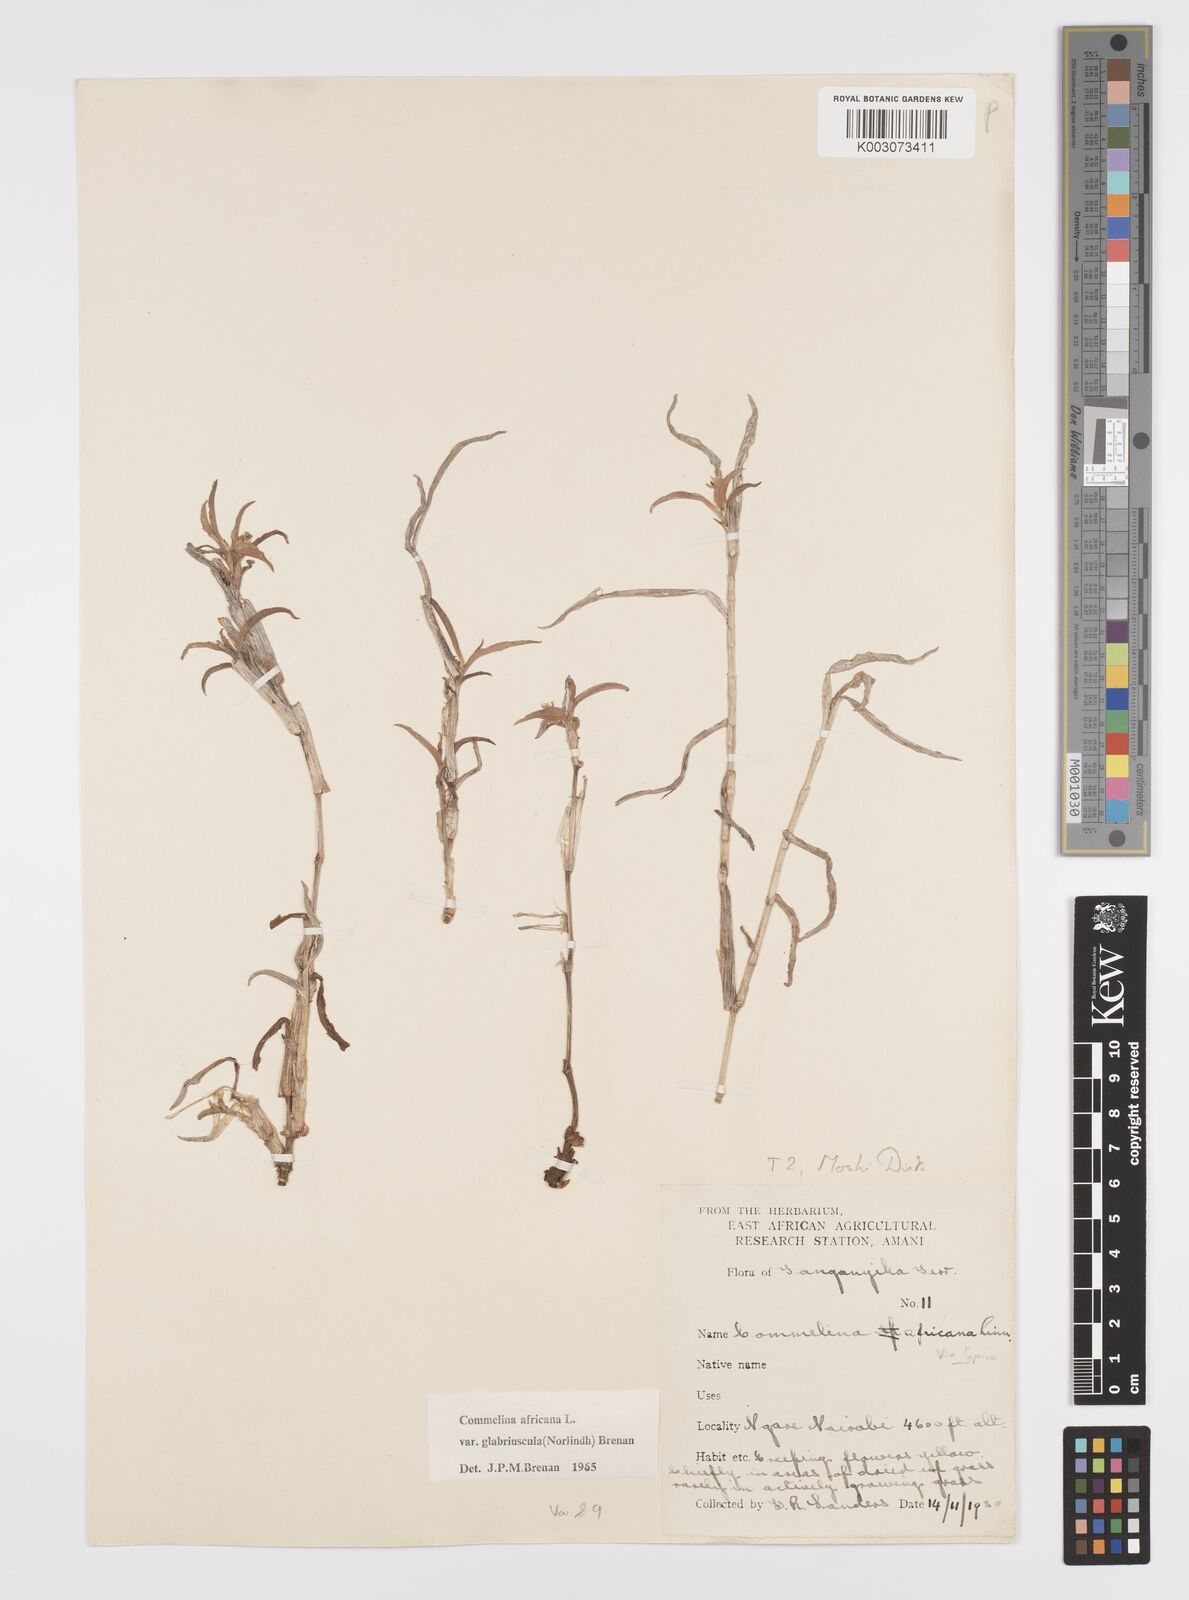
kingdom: Plantae
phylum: Tracheophyta
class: Liliopsida
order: Commelinales
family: Commelinaceae
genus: Commelina
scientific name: Commelina africana
